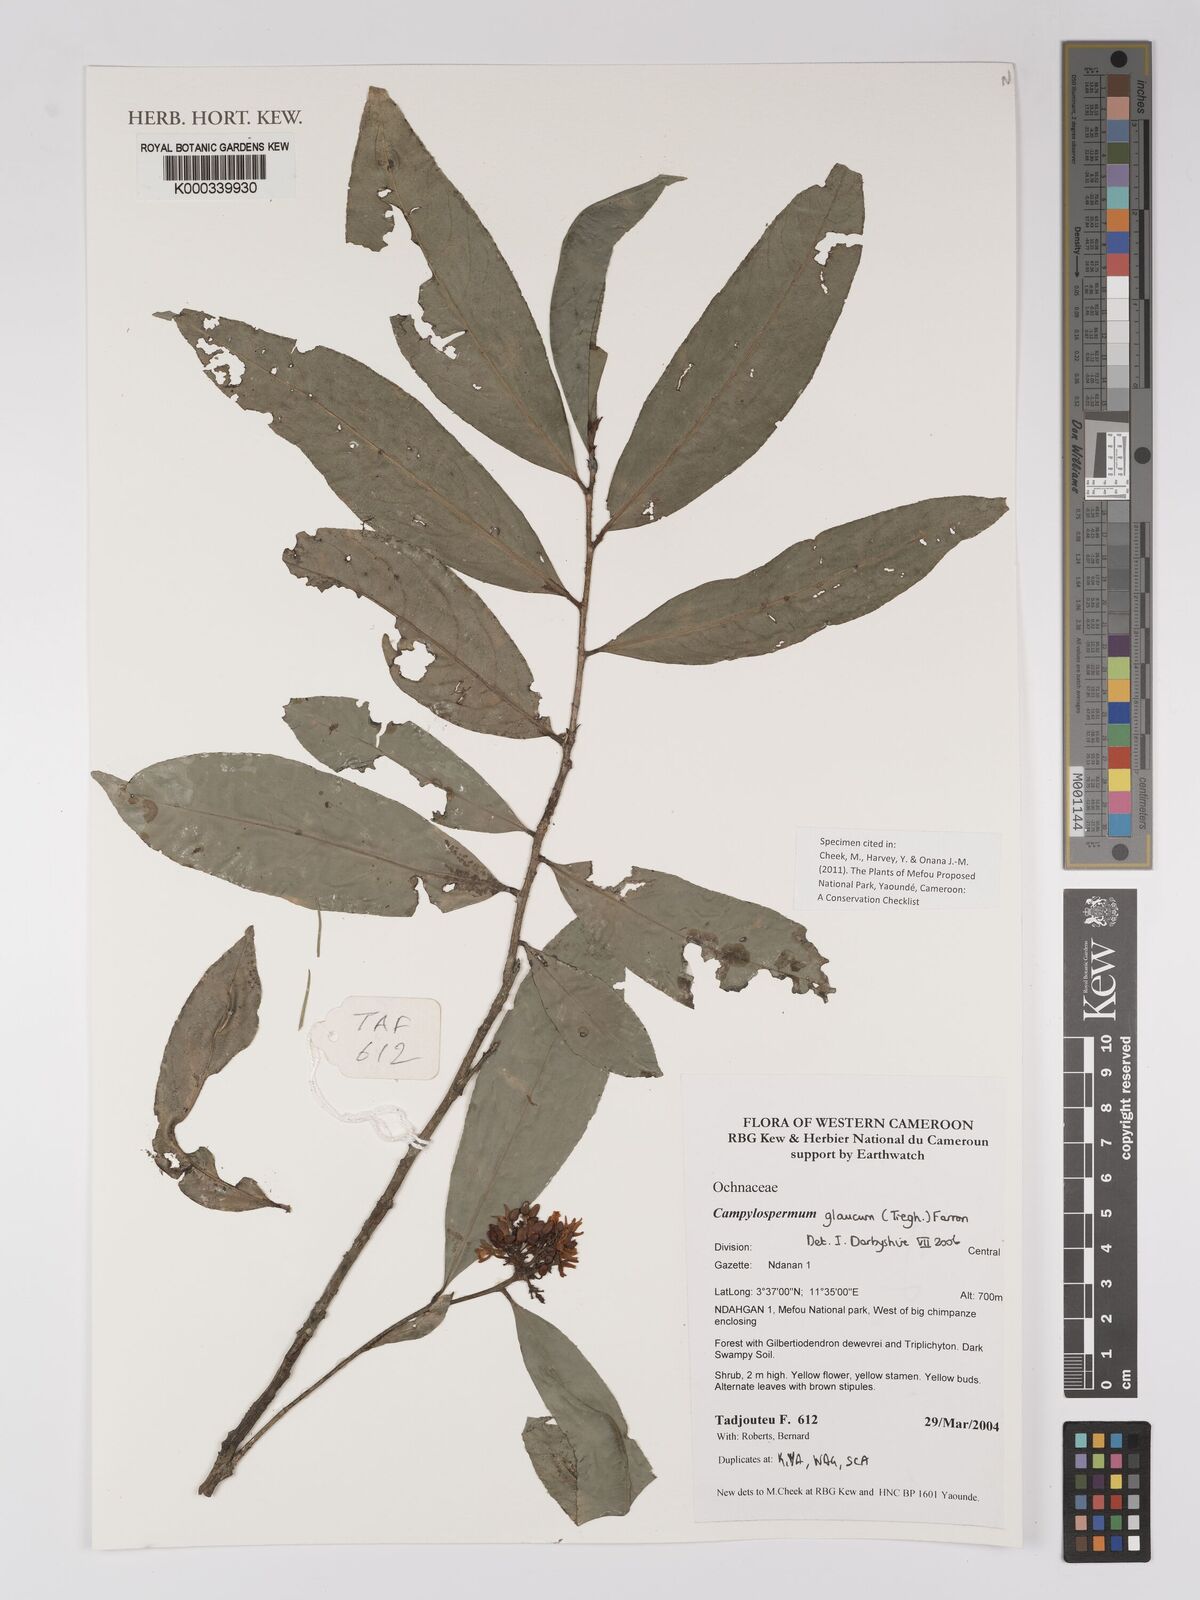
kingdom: Plantae
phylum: Tracheophyta
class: Magnoliopsida
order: Malpighiales
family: Ochnaceae
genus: Campylospermum
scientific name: Campylospermum glaucum
